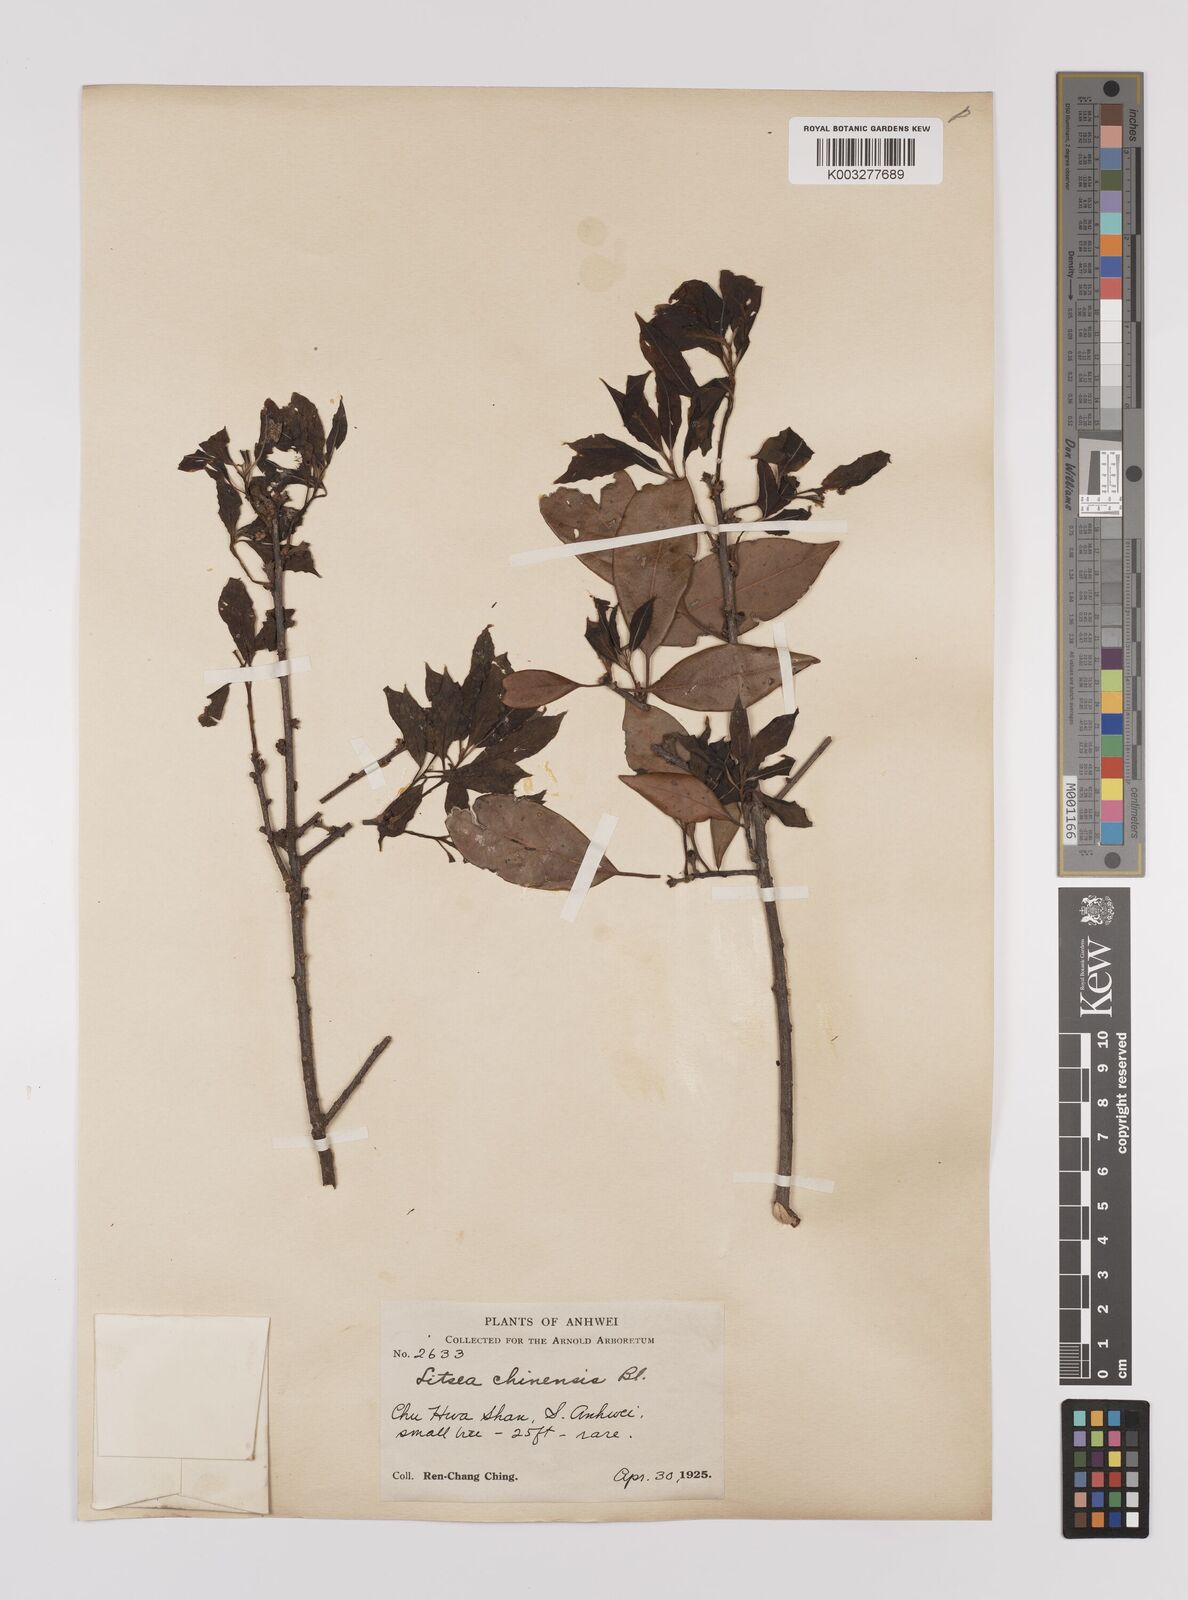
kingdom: Plantae
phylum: Tracheophyta
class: Magnoliopsida
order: Laurales
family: Lauraceae
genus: Litsea
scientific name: Litsea rotundifolia
